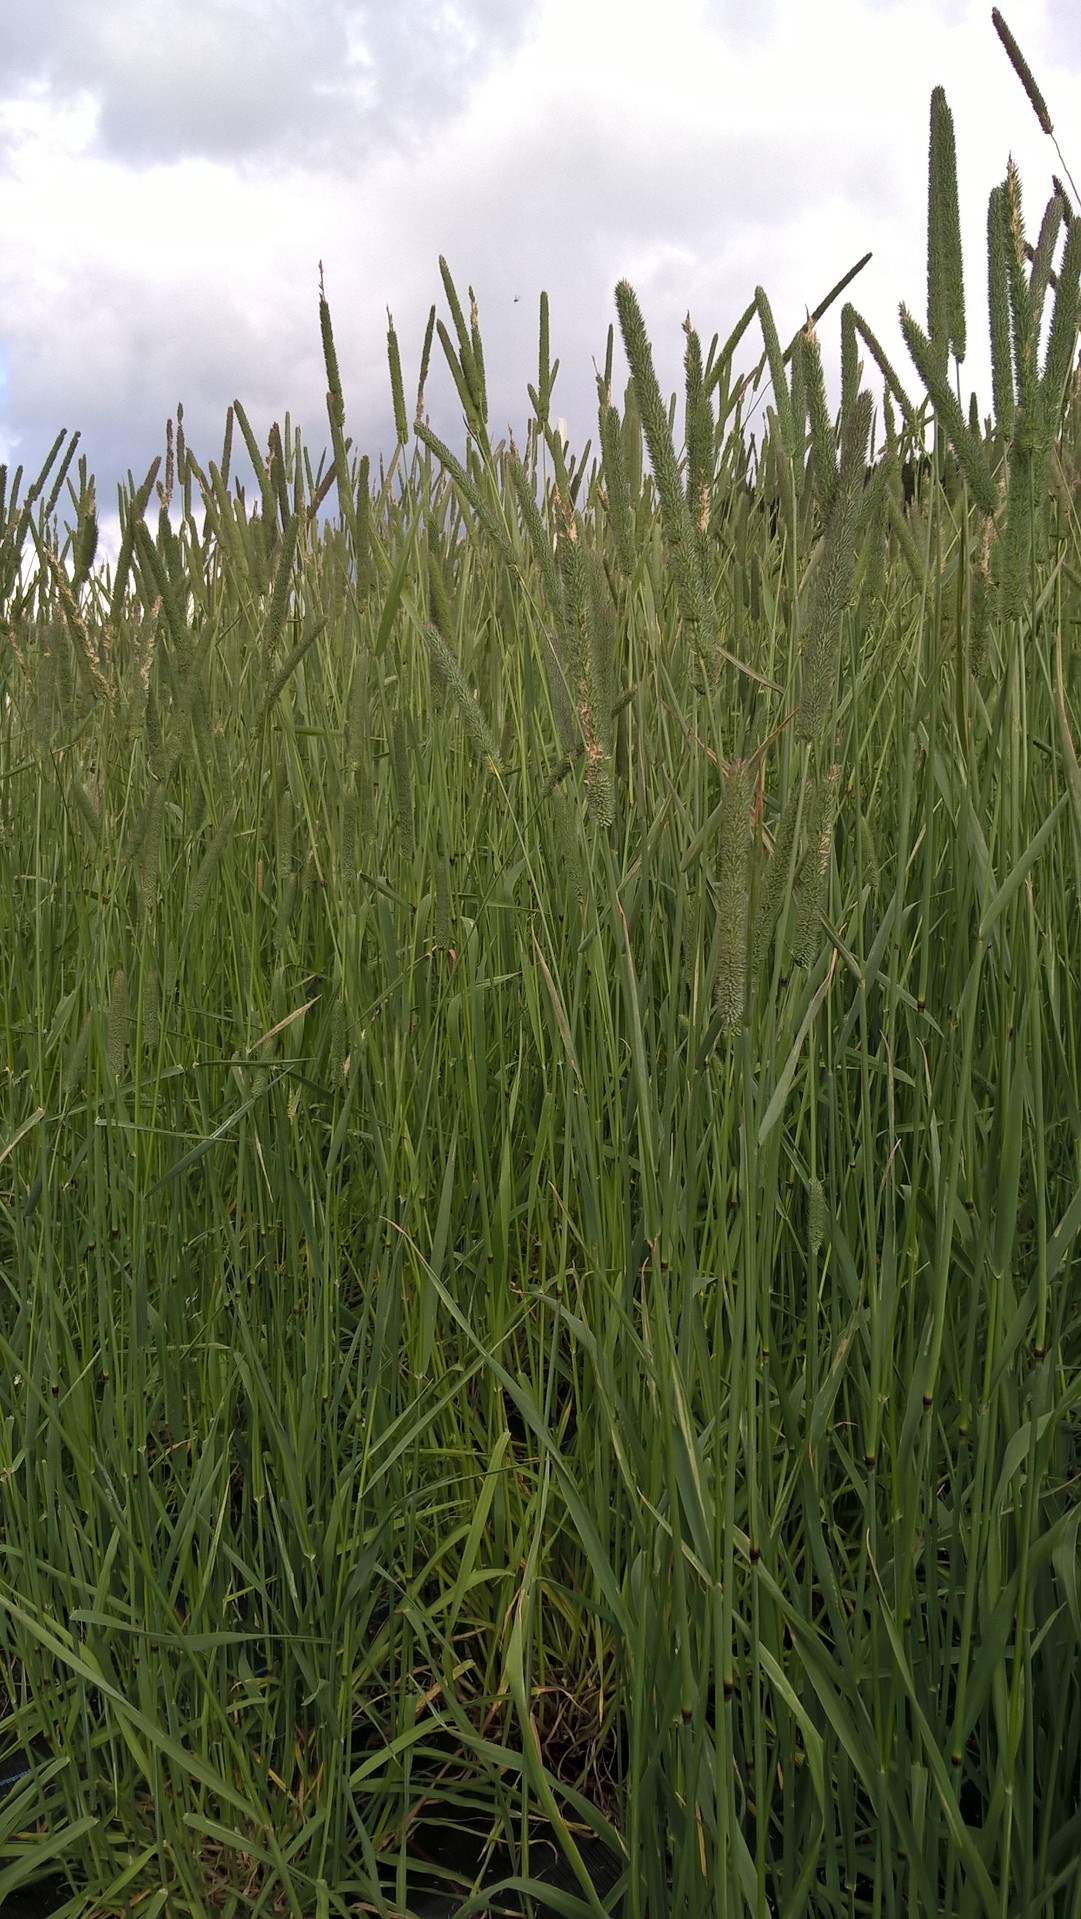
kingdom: Plantae
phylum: Tracheophyta
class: Liliopsida
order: Poales
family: Poaceae
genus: Phleum
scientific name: Phleum pratense
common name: Timothy grass
